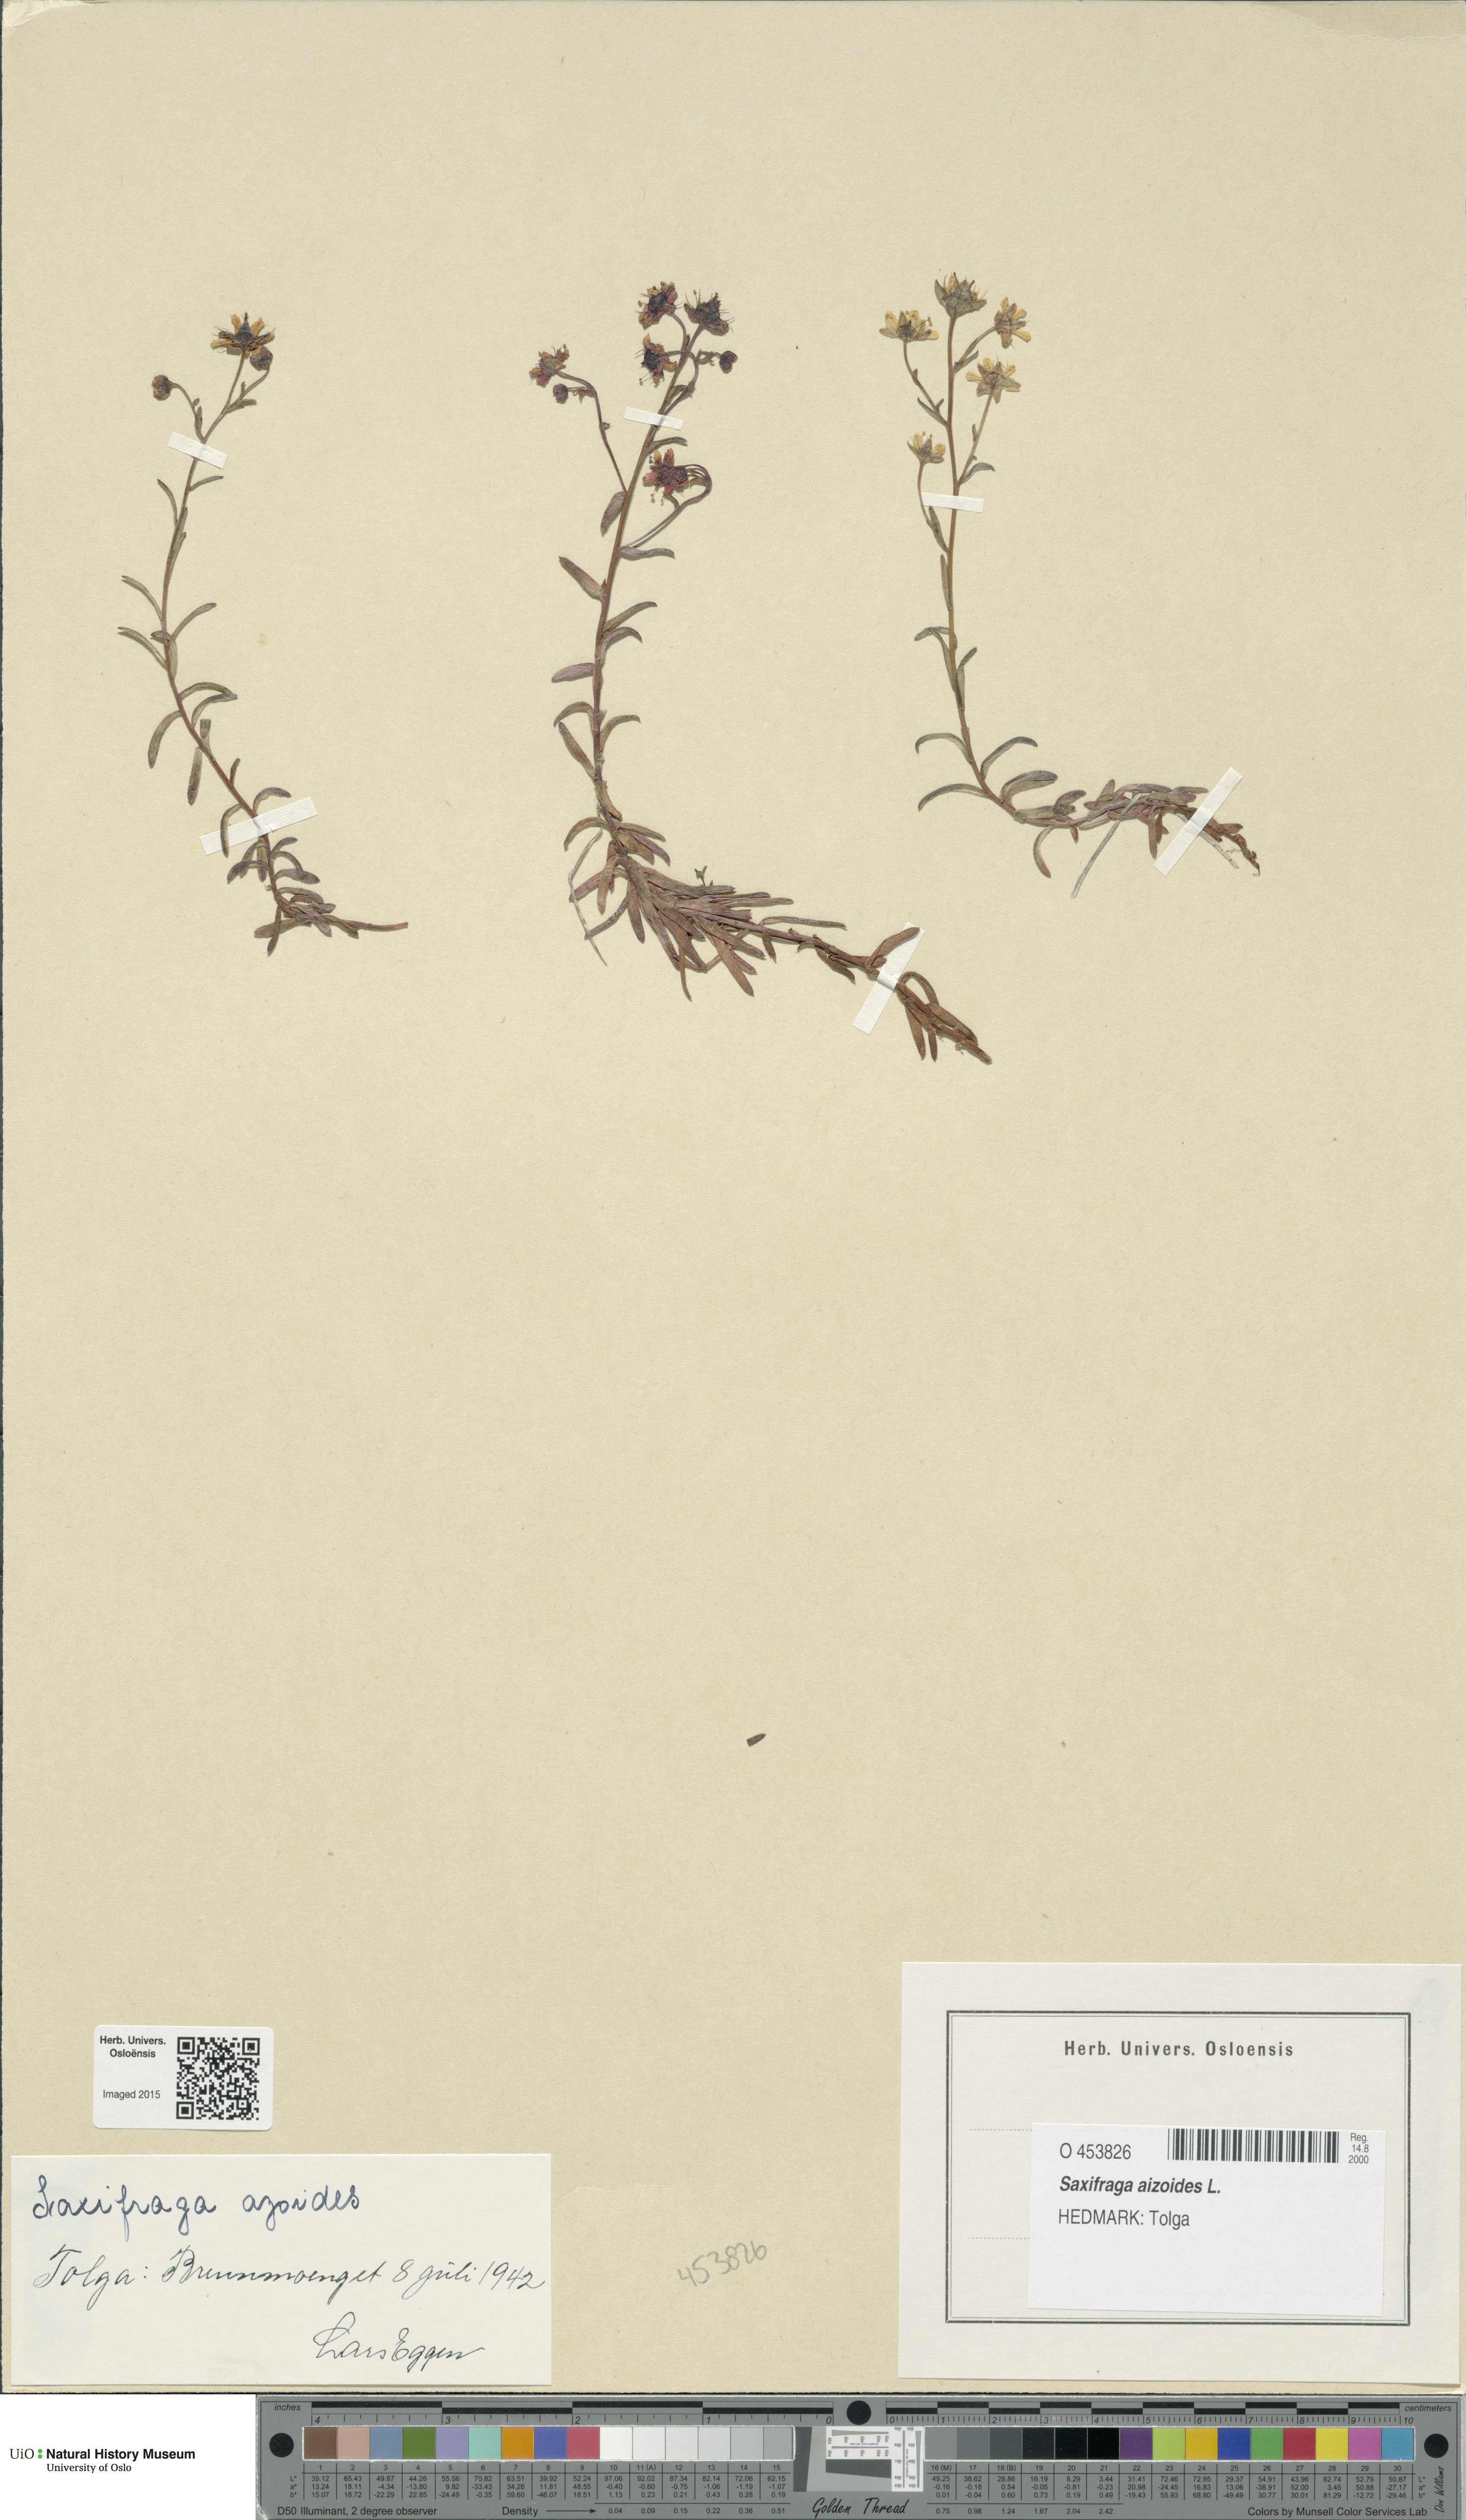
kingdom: Plantae
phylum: Tracheophyta
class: Magnoliopsida
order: Saxifragales
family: Saxifragaceae
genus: Saxifraga
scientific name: Saxifraga aizoides
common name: Yellow mountain saxifrage
